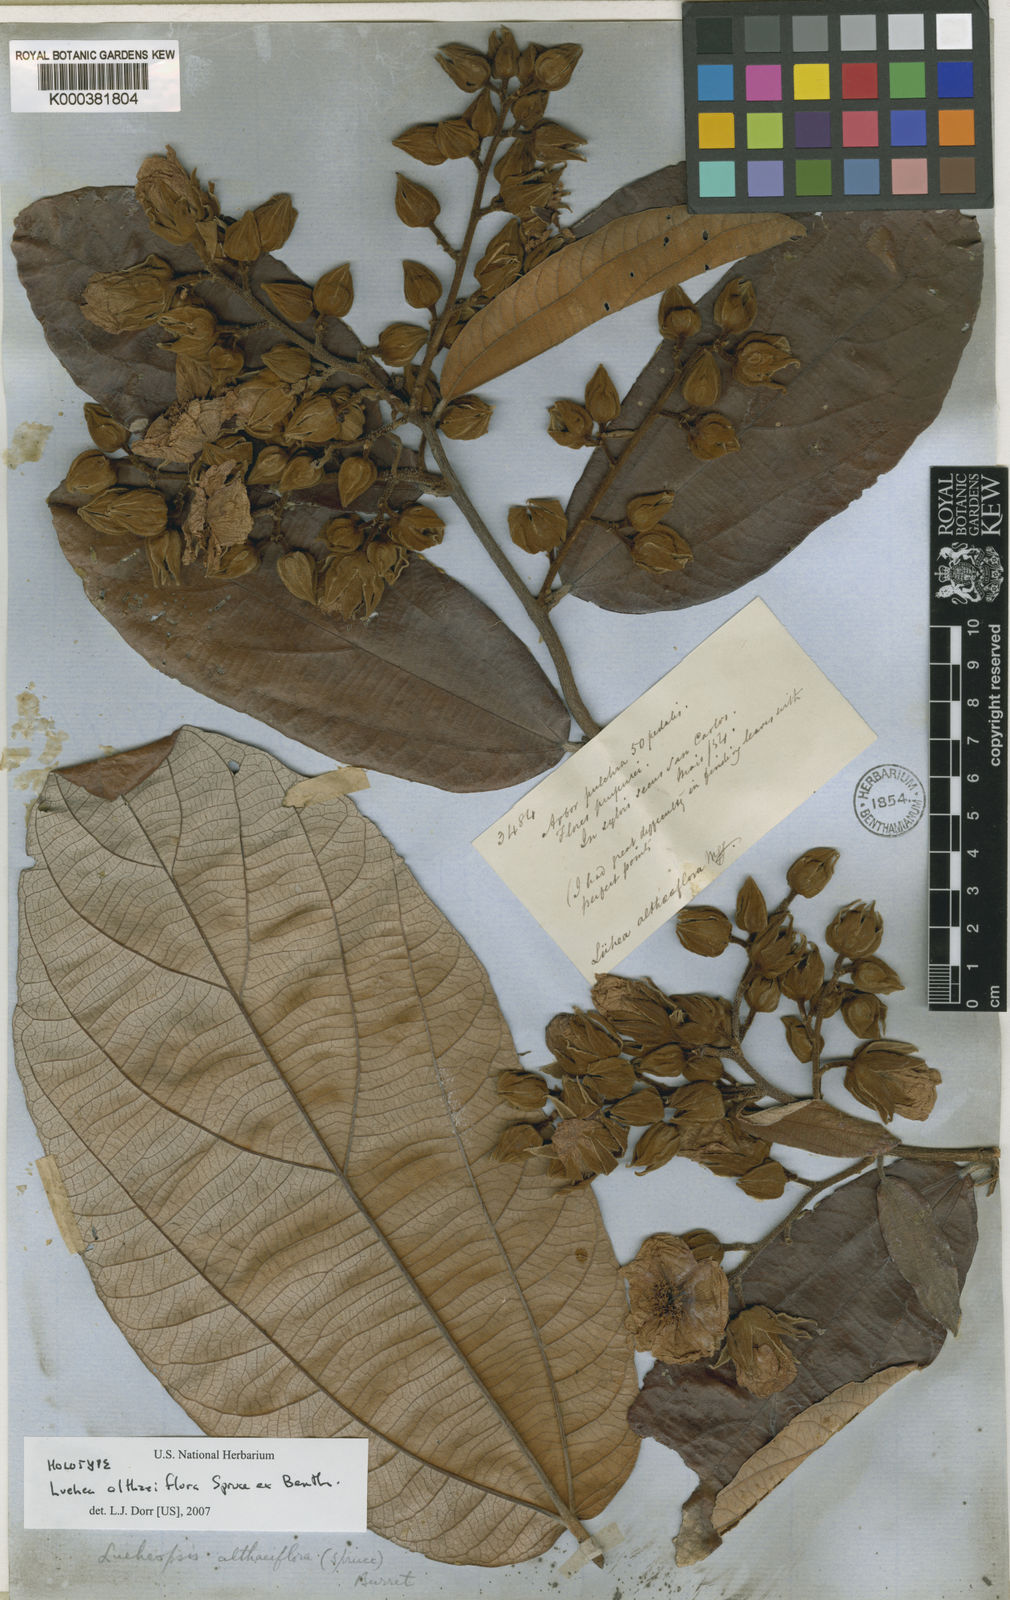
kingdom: Plantae
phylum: Tracheophyta
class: Magnoliopsida
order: Malvales
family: Malvaceae
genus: Lueheopsis
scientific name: Lueheopsis althaeiflora
